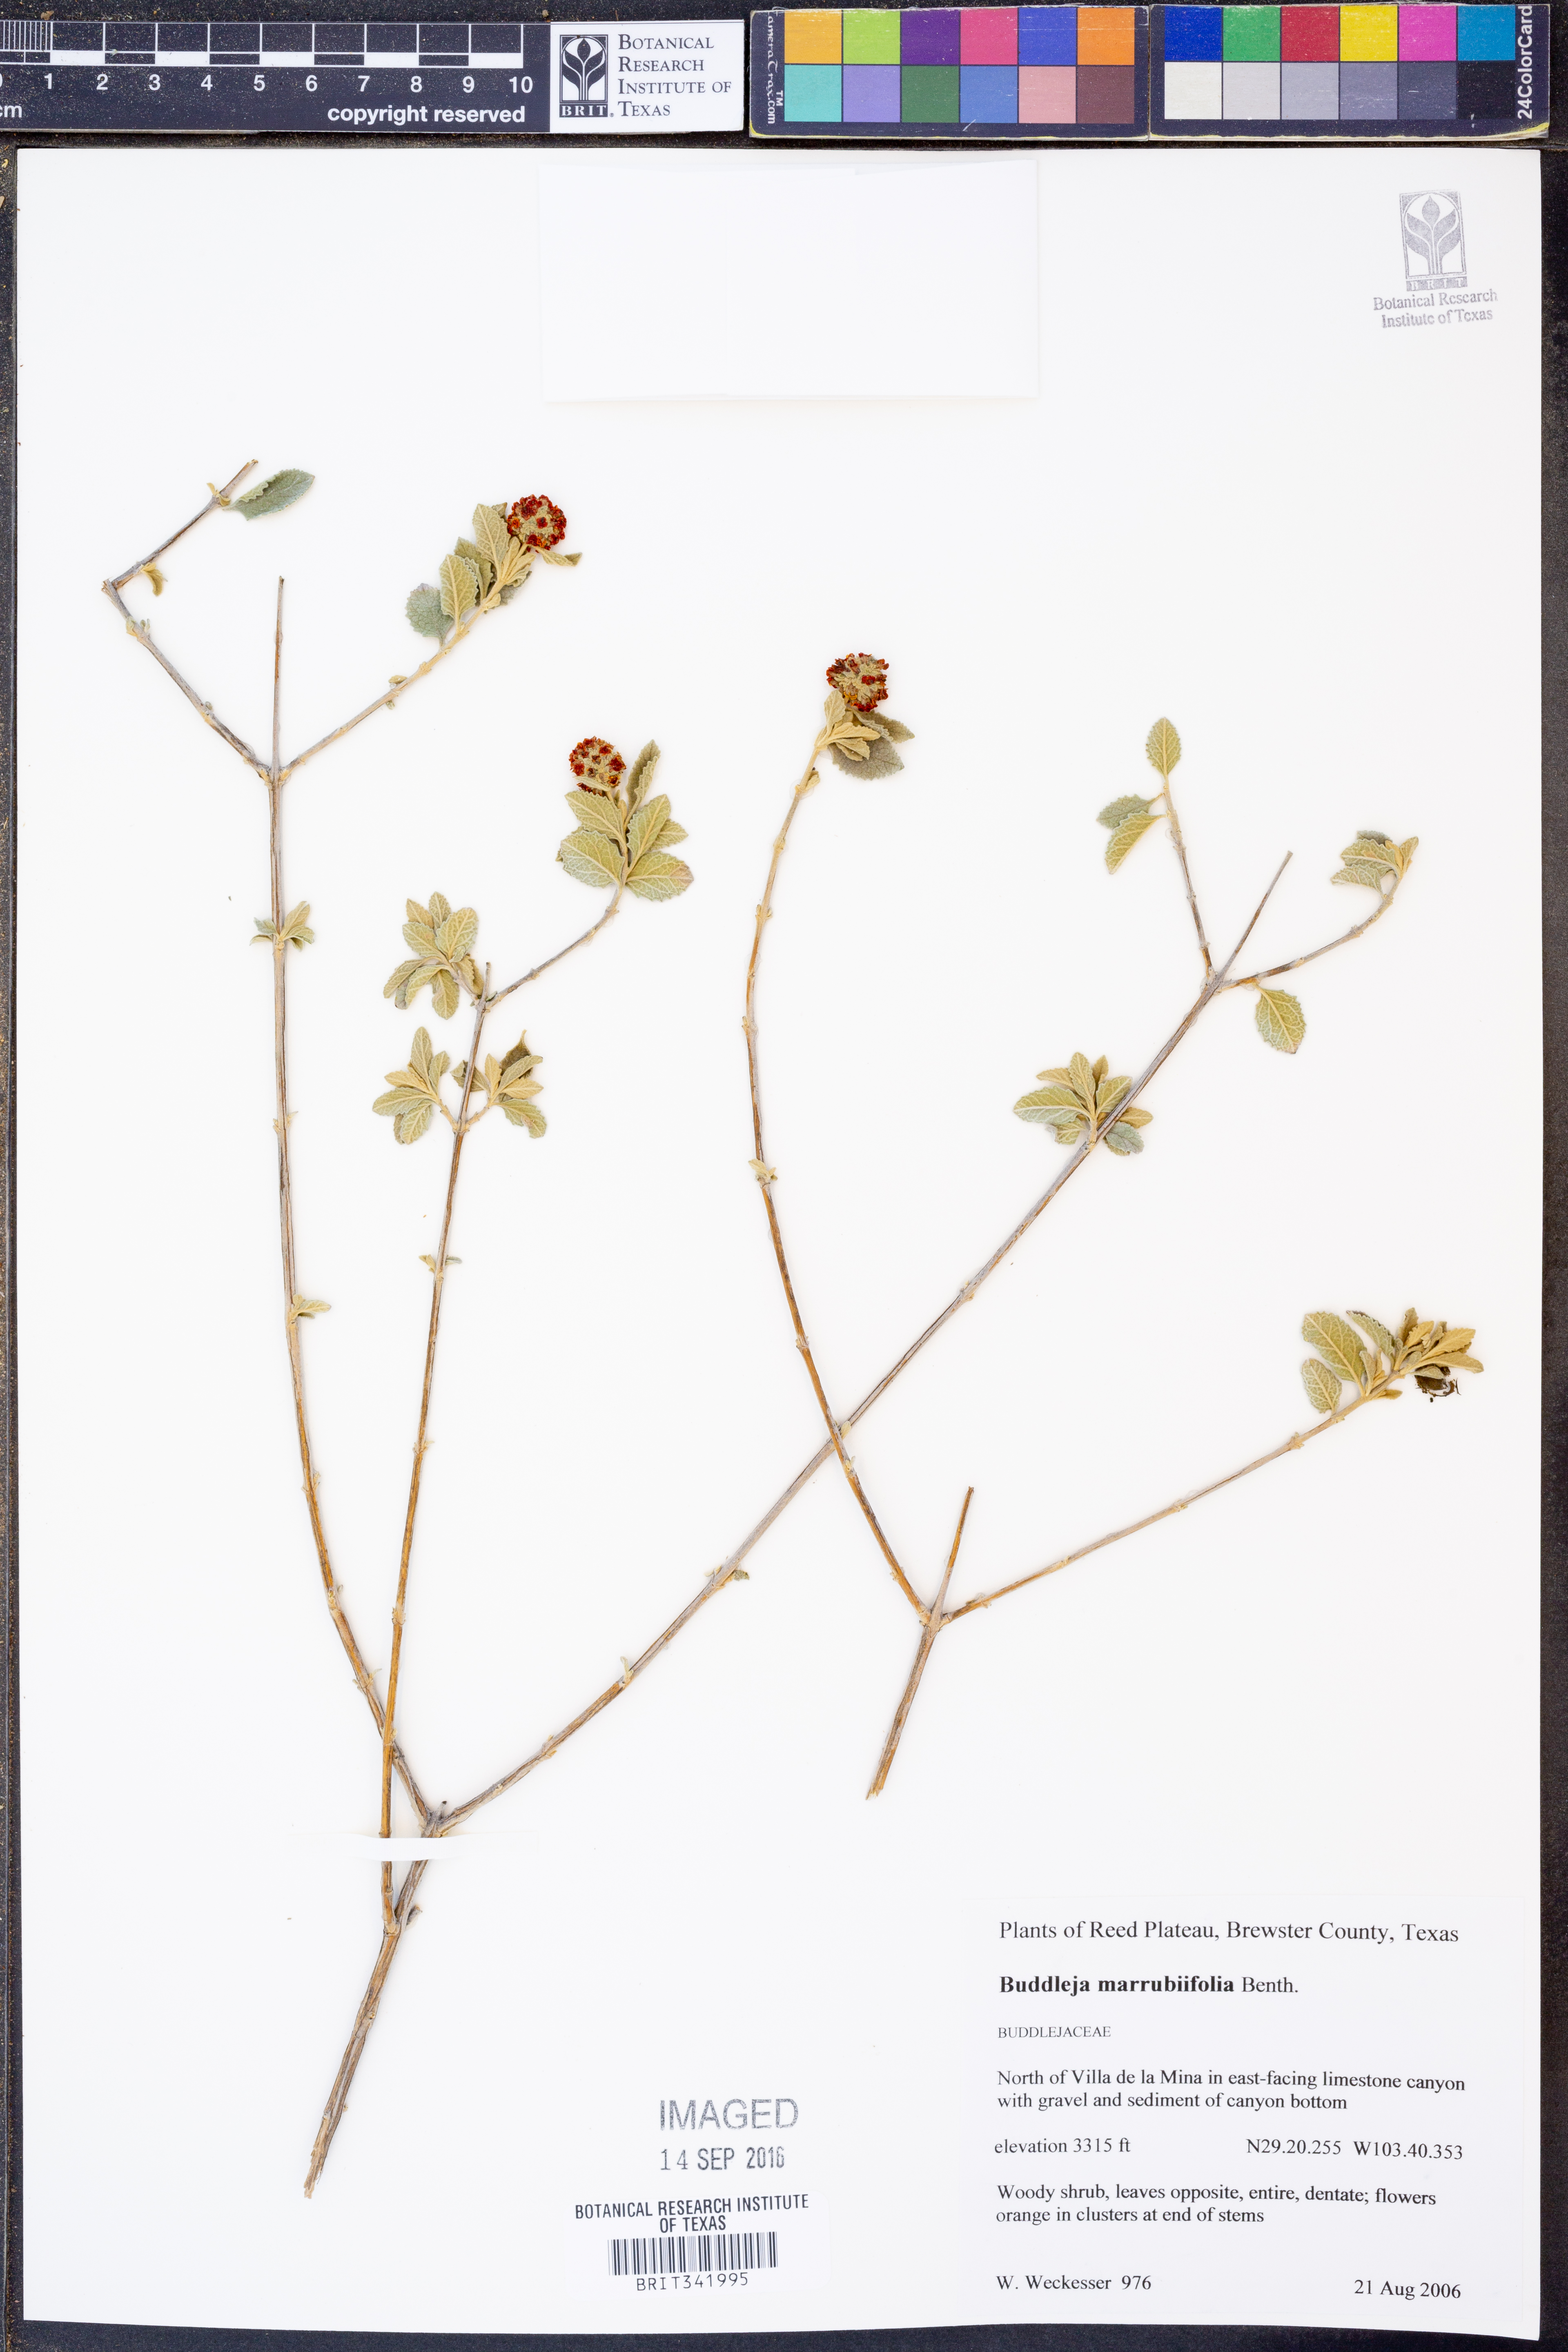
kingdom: Plantae
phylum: Tracheophyta
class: Magnoliopsida
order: Lamiales
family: Scrophulariaceae
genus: Buddleja
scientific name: Buddleja marrubiifolia
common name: Woolly butterfly-bush
